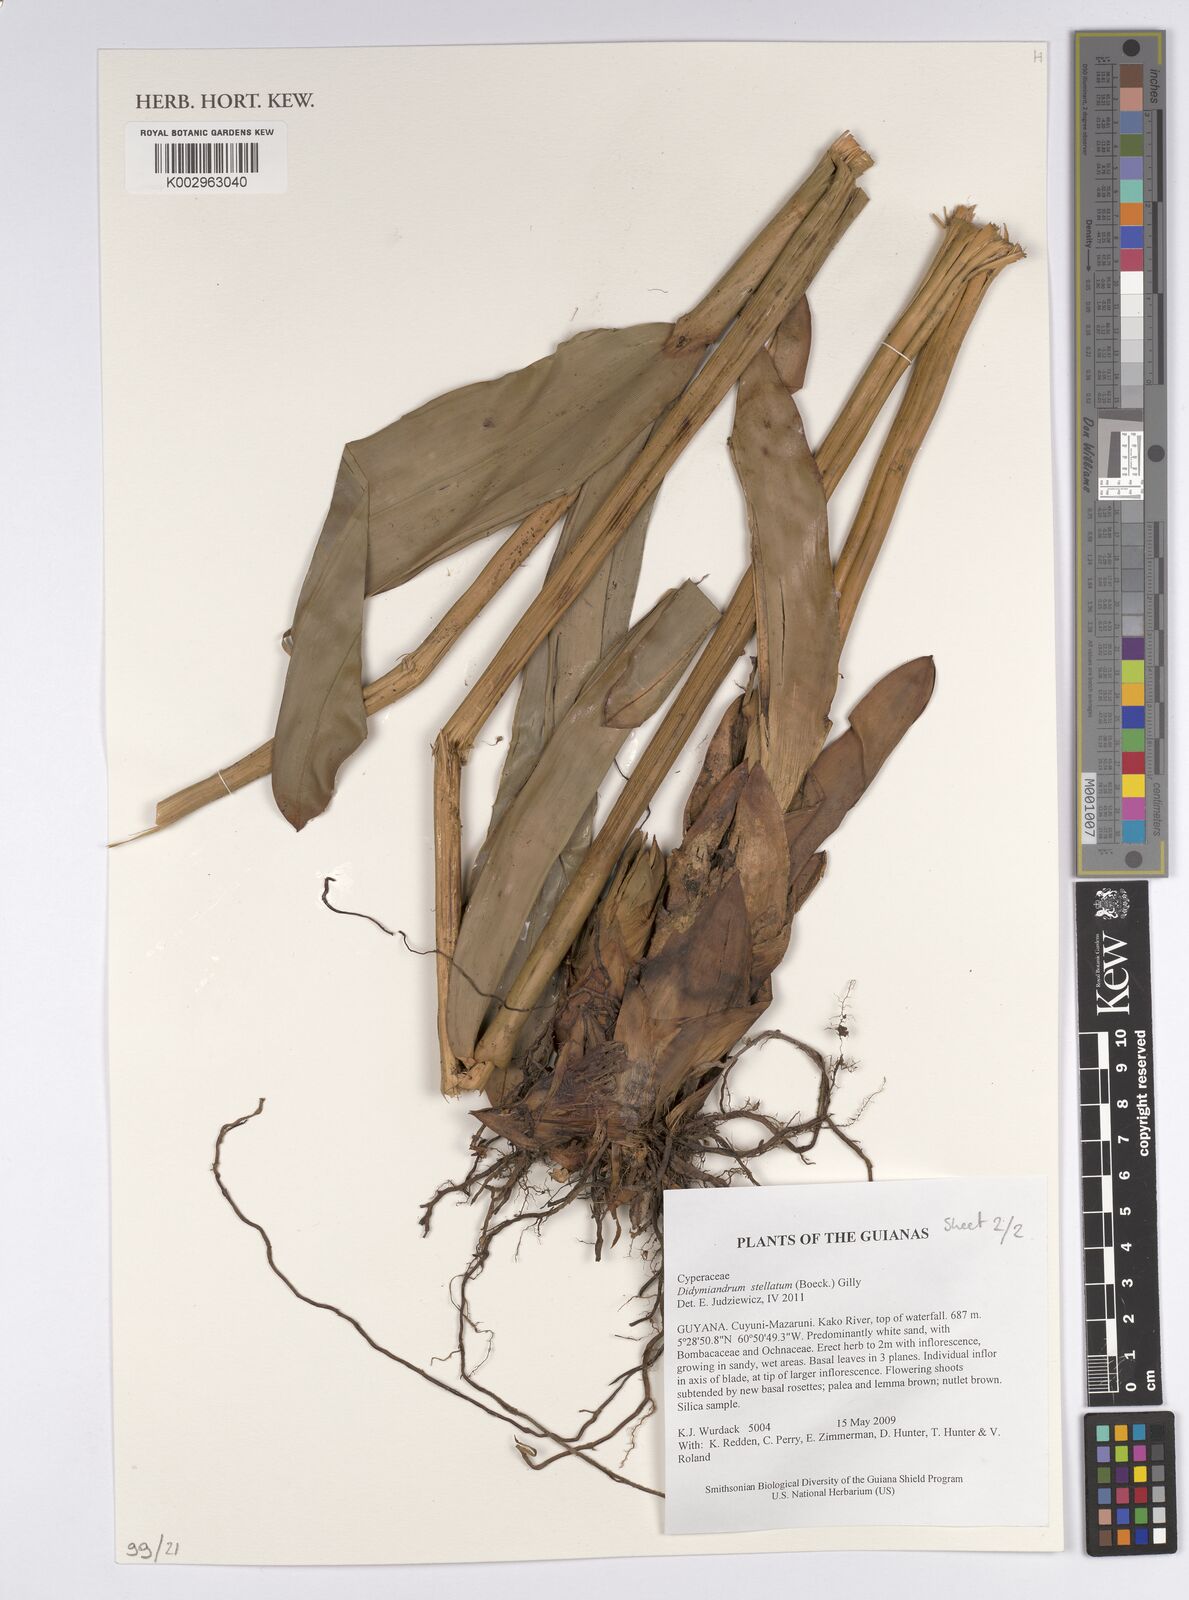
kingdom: Plantae
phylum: Tracheophyta
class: Liliopsida
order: Poales
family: Cyperaceae
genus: Didymiandrum
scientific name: Didymiandrum stellatum
